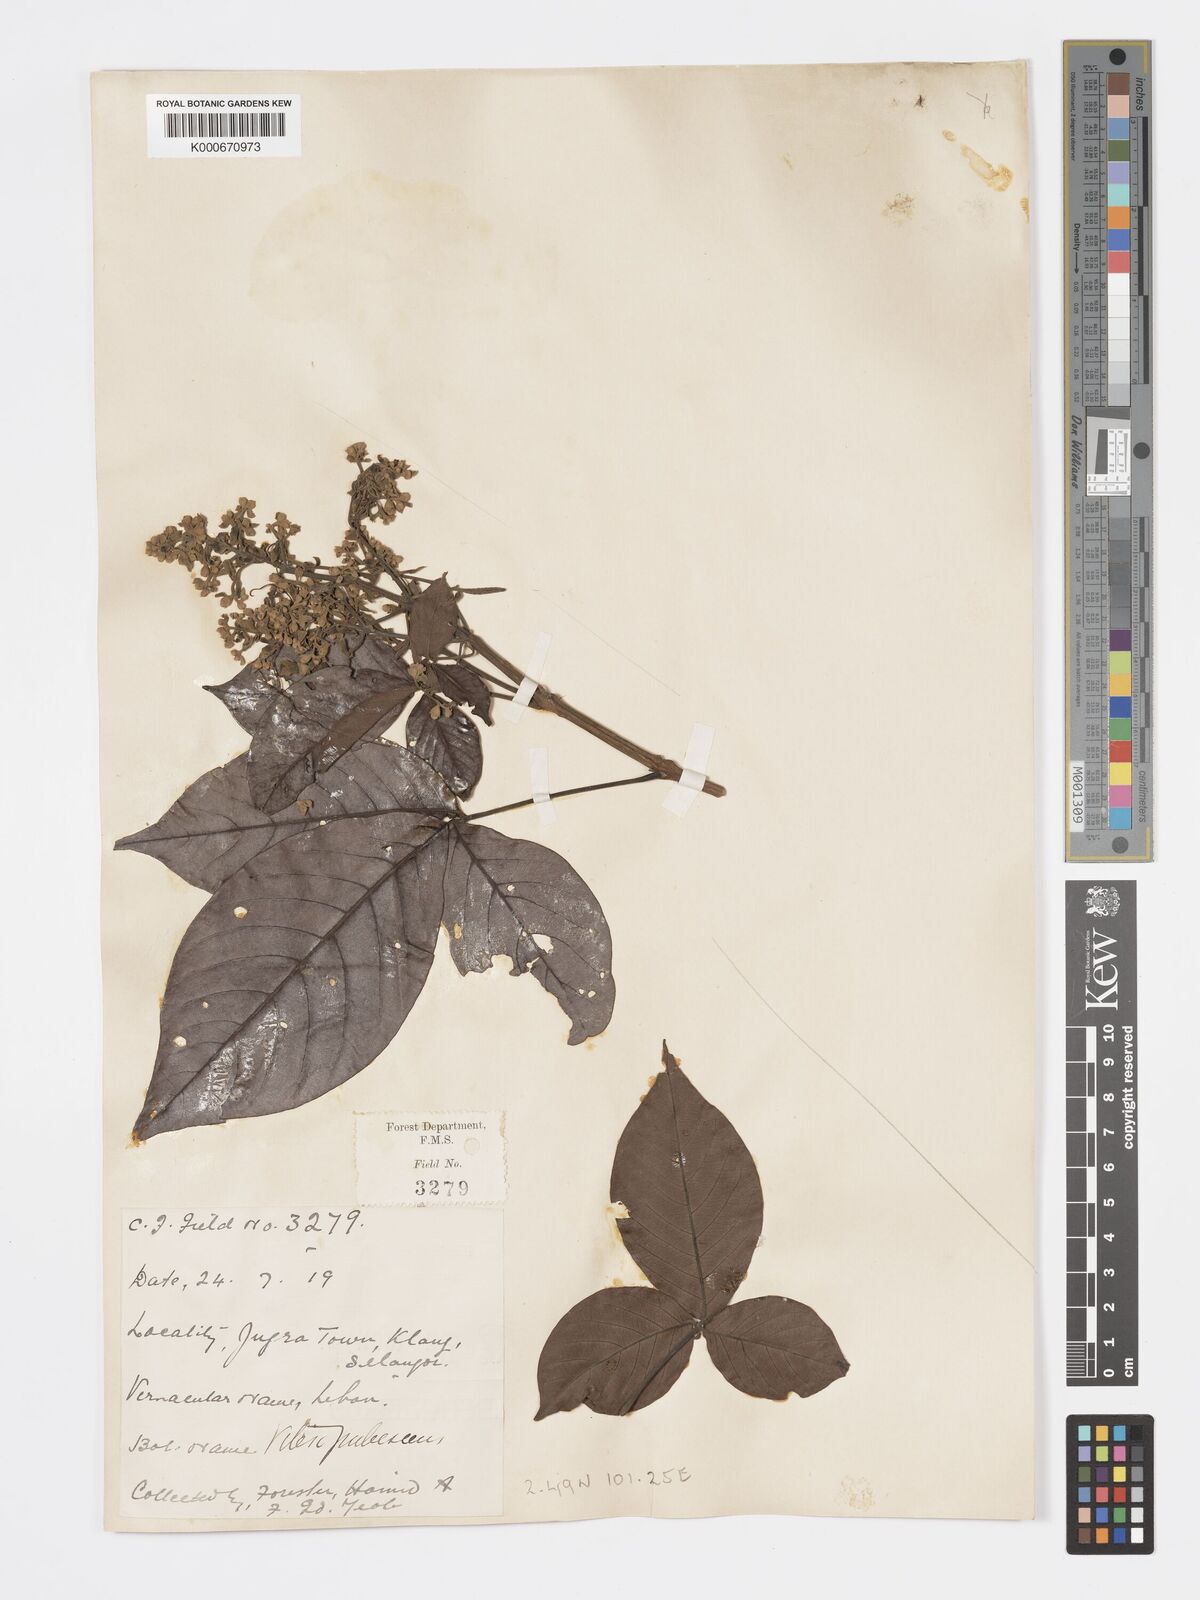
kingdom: Plantae
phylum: Tracheophyta
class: Magnoliopsida
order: Lamiales
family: Lamiaceae
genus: Vitex
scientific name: Vitex pinnata
